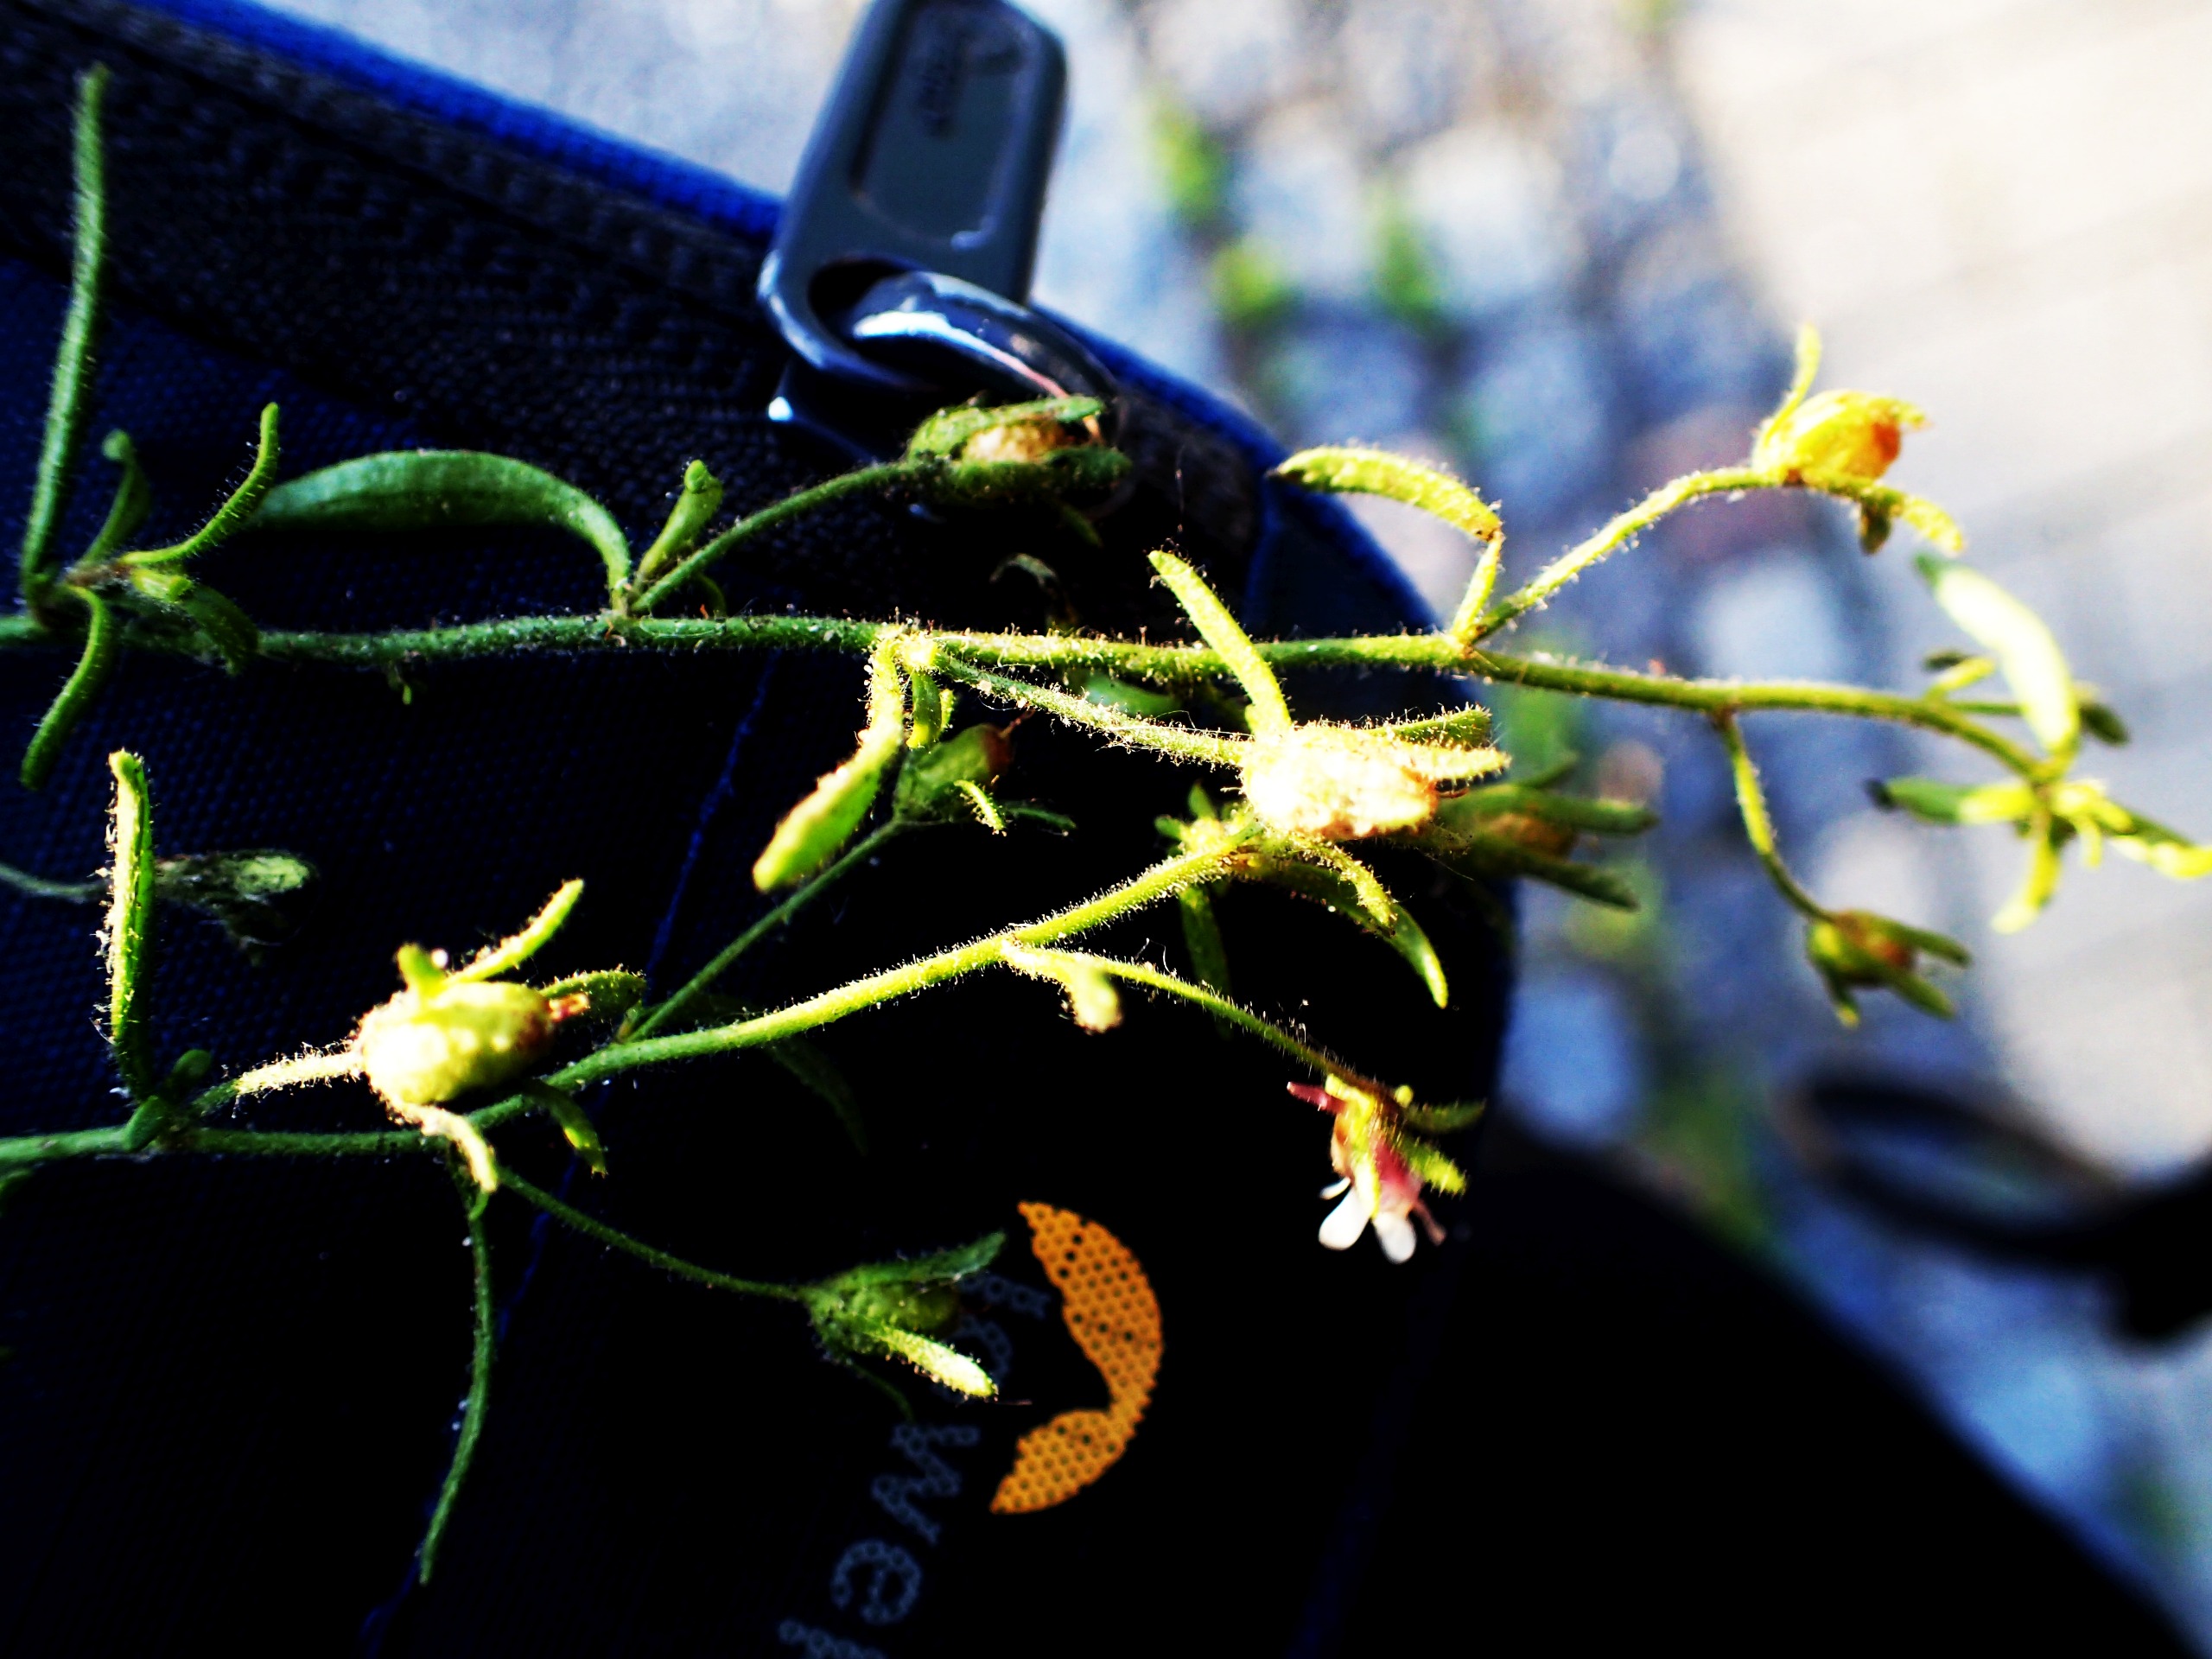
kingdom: Plantae
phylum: Tracheophyta
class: Magnoliopsida
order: Lamiales
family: Plantaginaceae
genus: Chaenorhinum
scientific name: Chaenorhinum minus
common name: Liden torskemund
